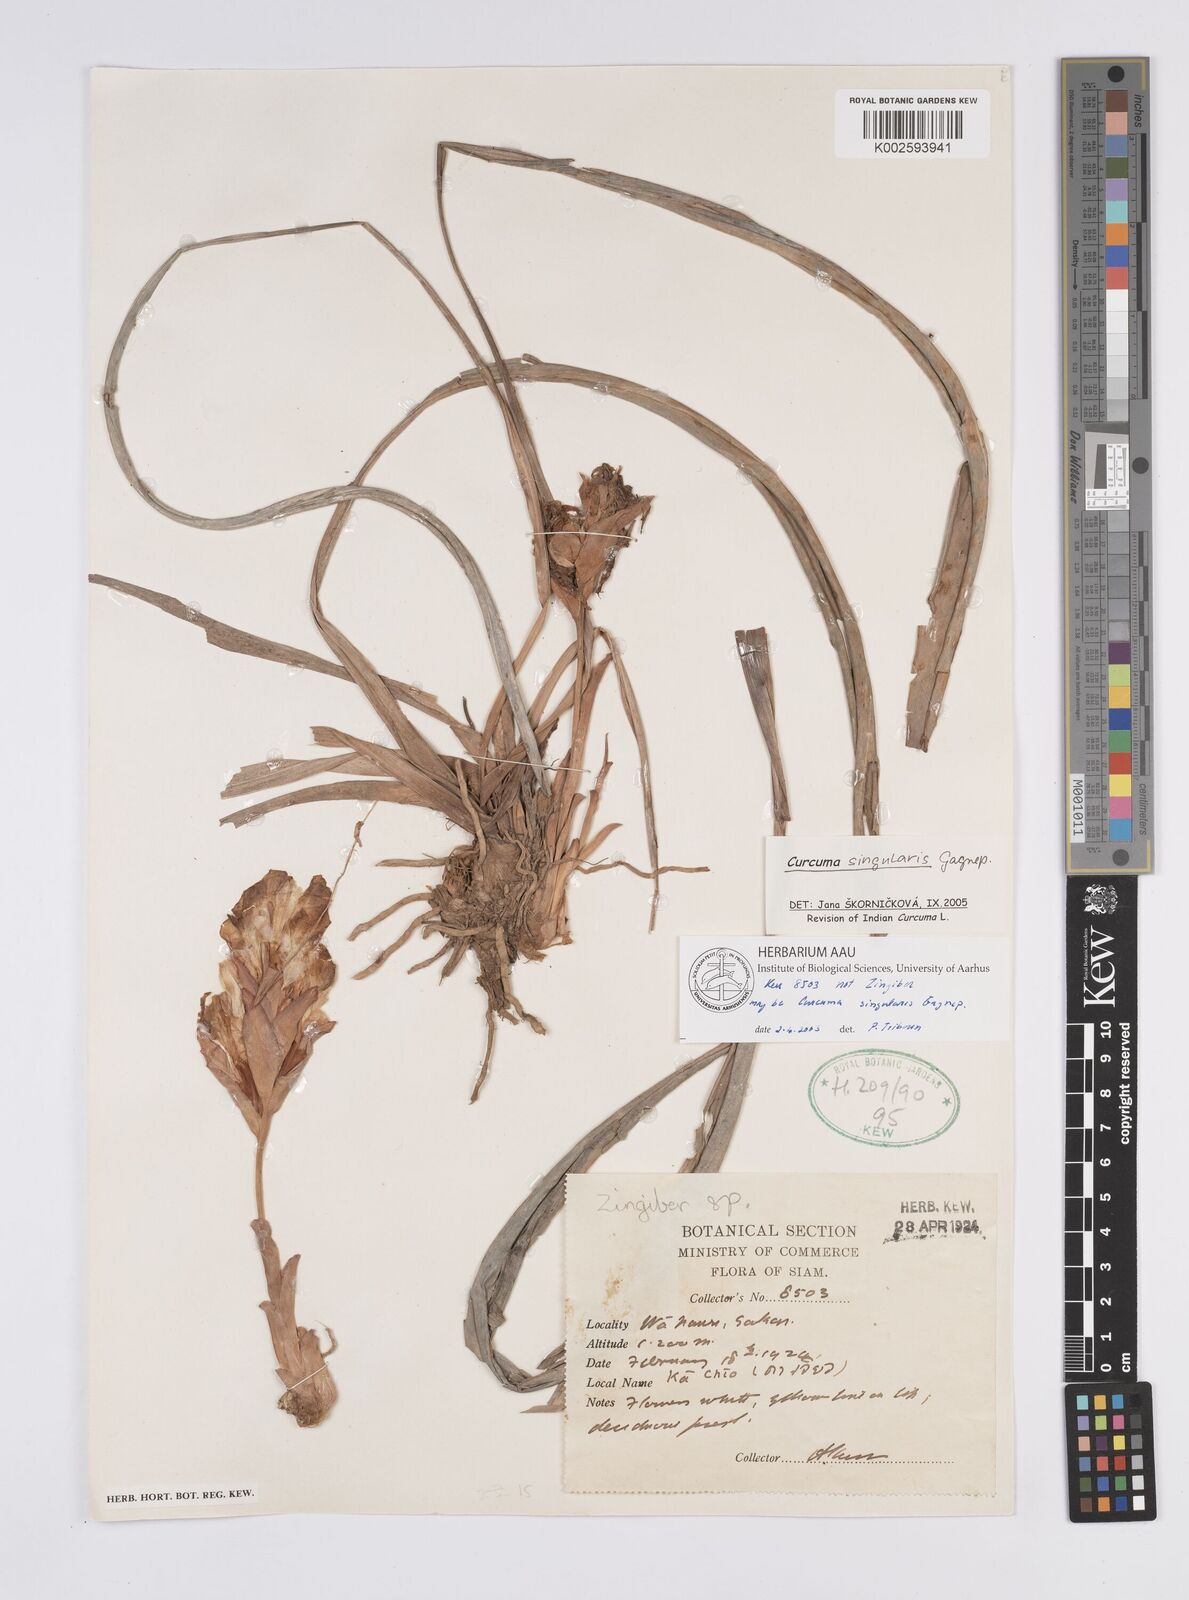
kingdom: Plantae
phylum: Tracheophyta
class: Liliopsida
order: Zingiberales
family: Zingiberaceae
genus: Curcuma
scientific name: Curcuma singularis
